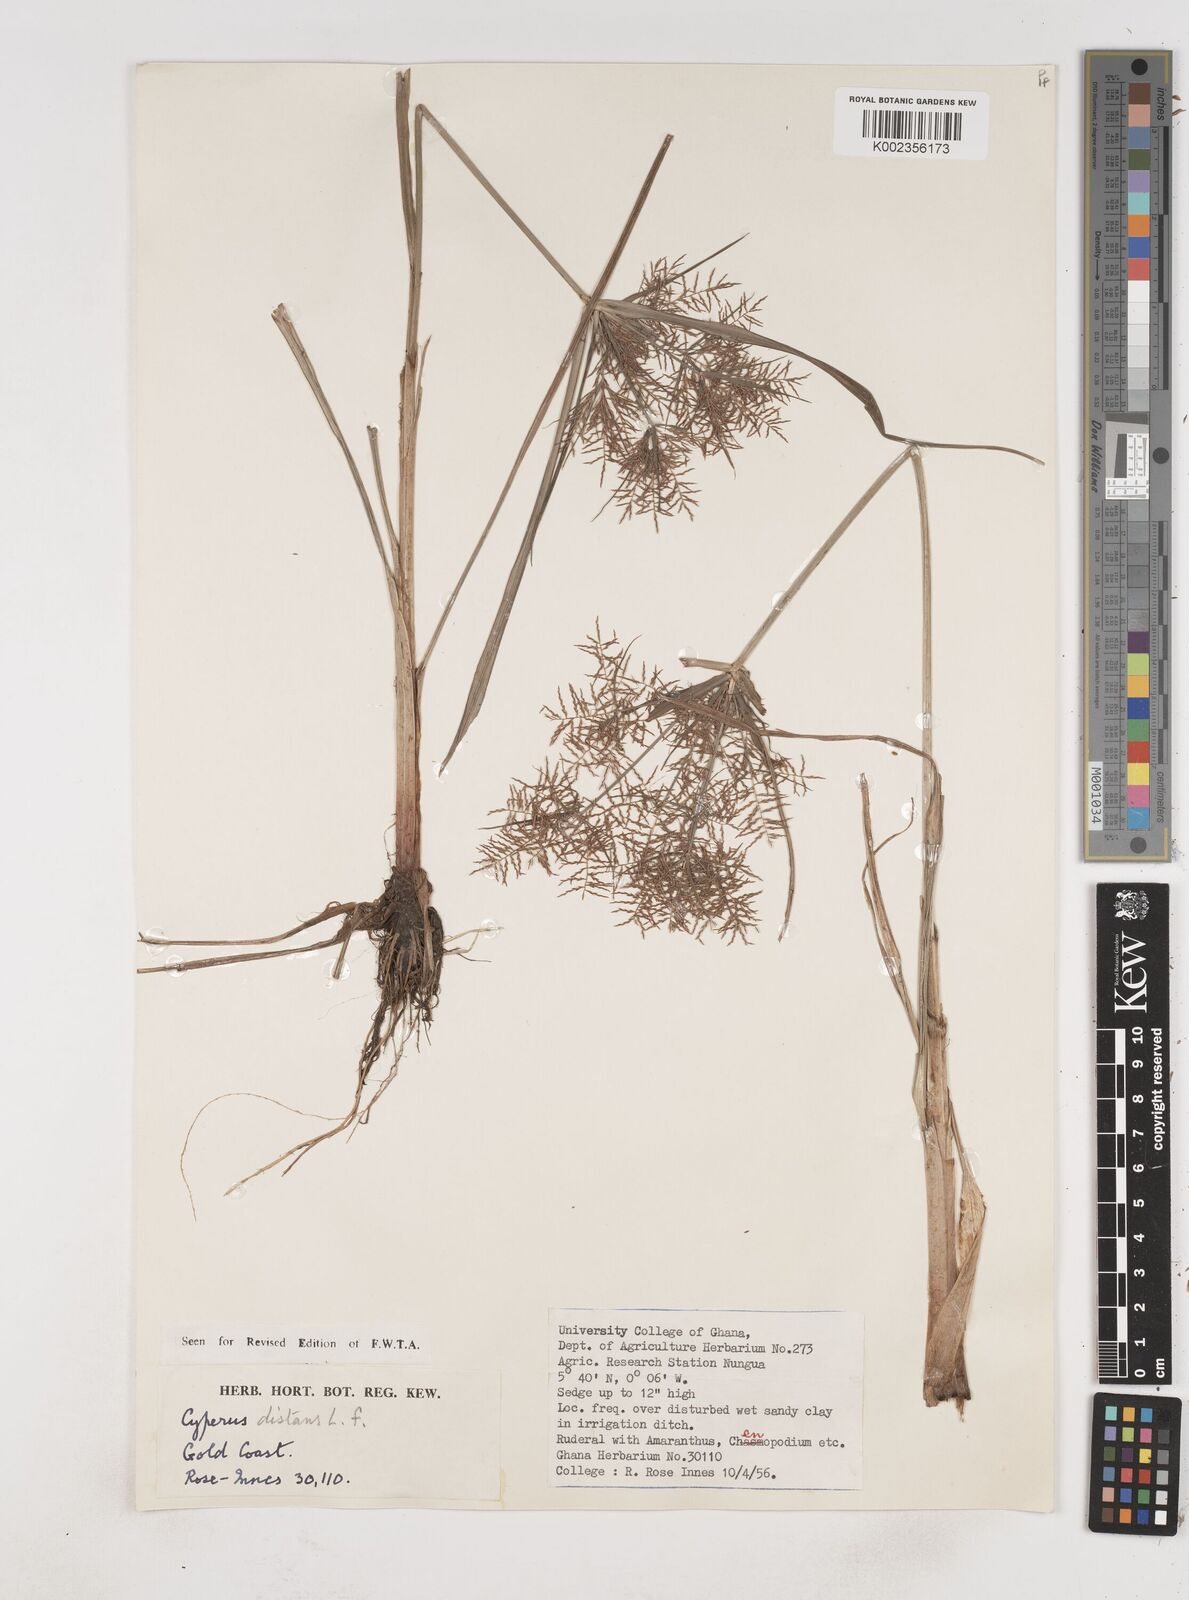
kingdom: Plantae
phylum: Tracheophyta
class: Liliopsida
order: Poales
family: Cyperaceae
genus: Cyperus
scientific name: Cyperus distans
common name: Slender cyperus
